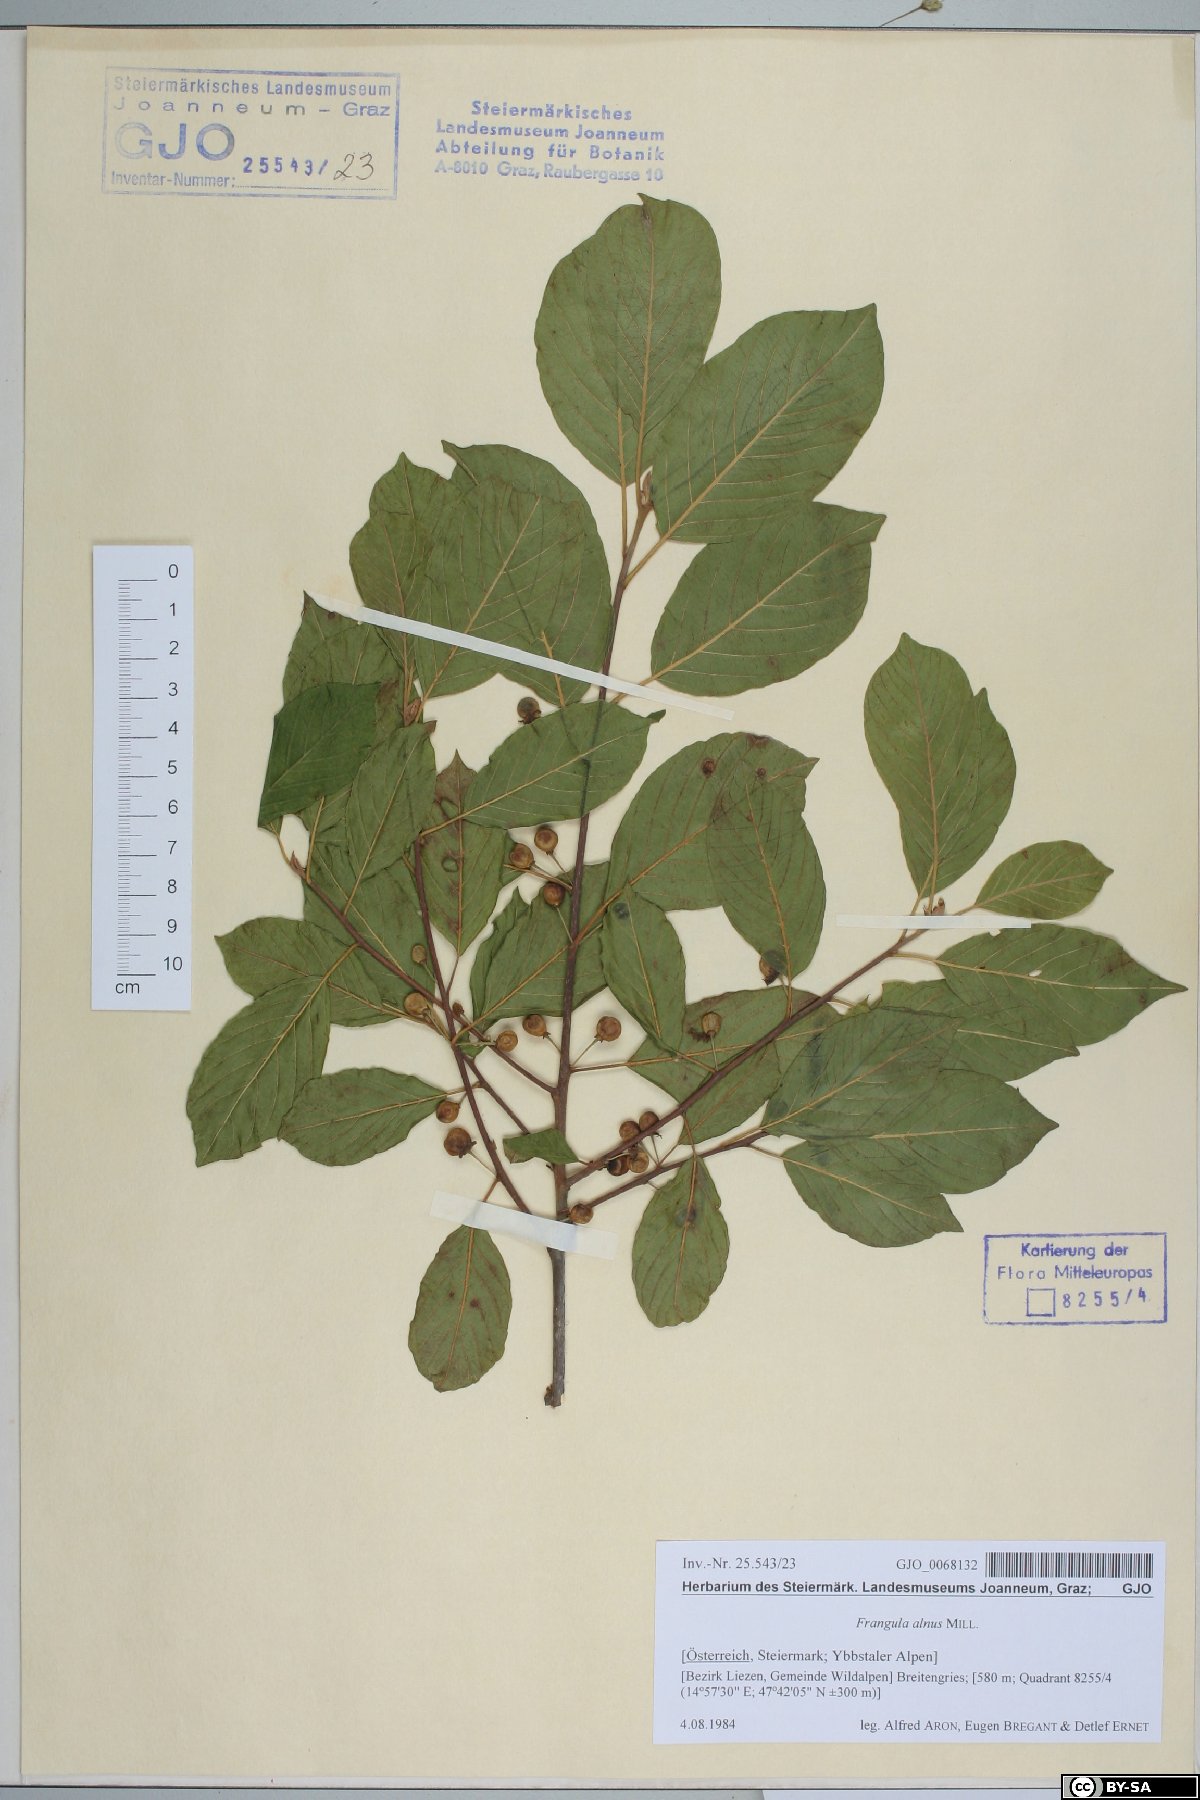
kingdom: Plantae
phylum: Tracheophyta
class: Magnoliopsida
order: Rosales
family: Rhamnaceae
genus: Frangula
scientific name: Frangula alnus
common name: Alder buckthorn
